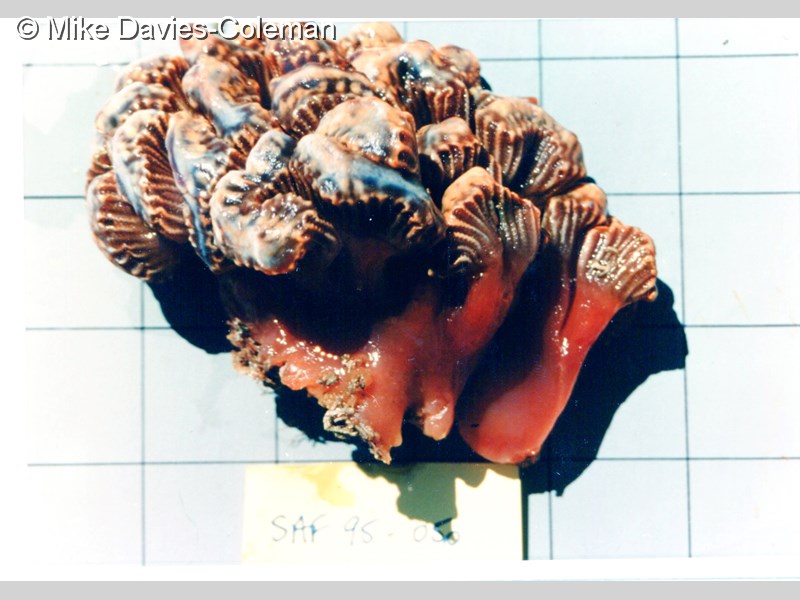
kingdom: Animalia
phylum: Chordata
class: Ascidiacea
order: Aplousobranchia
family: Holozoidae
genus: Sycozoa
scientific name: Sycozoa arborescens
